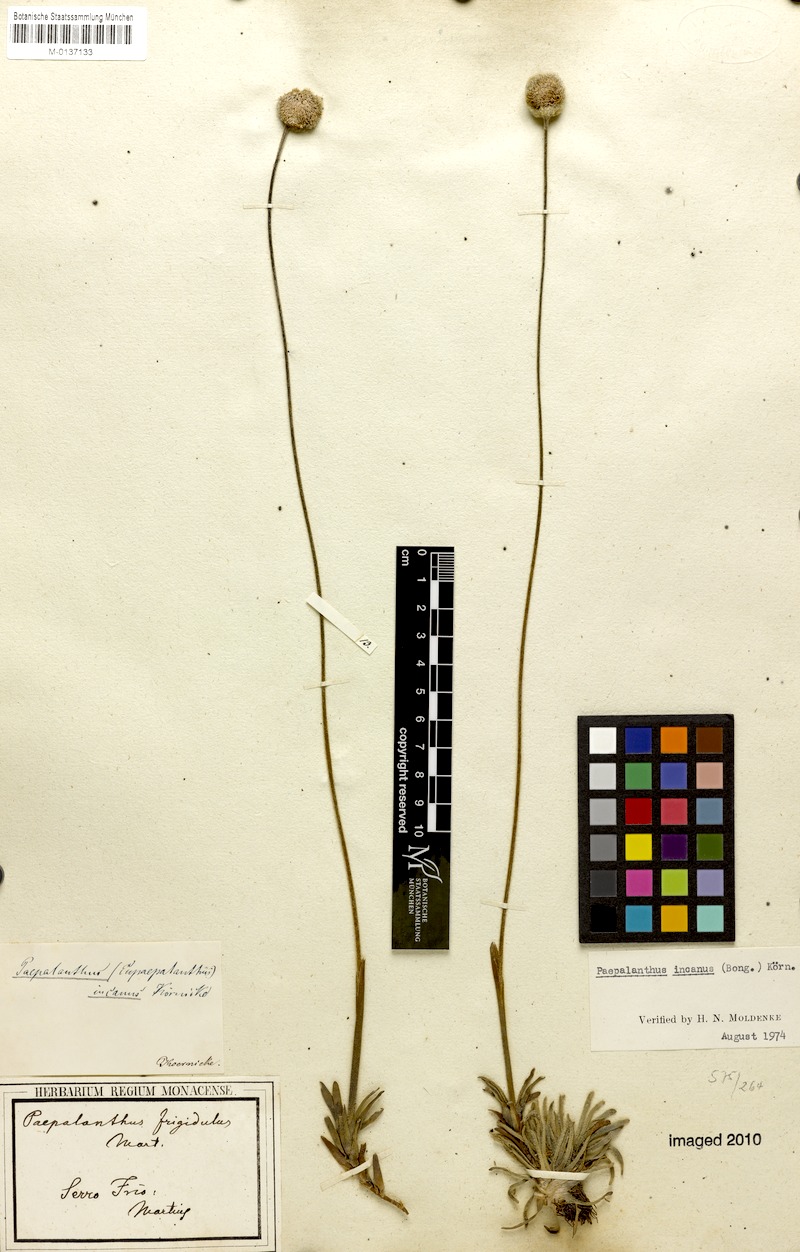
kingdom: Plantae
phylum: Tracheophyta
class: Liliopsida
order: Poales
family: Eriocaulaceae
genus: Paepalanthus
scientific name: Paepalanthus incanus
